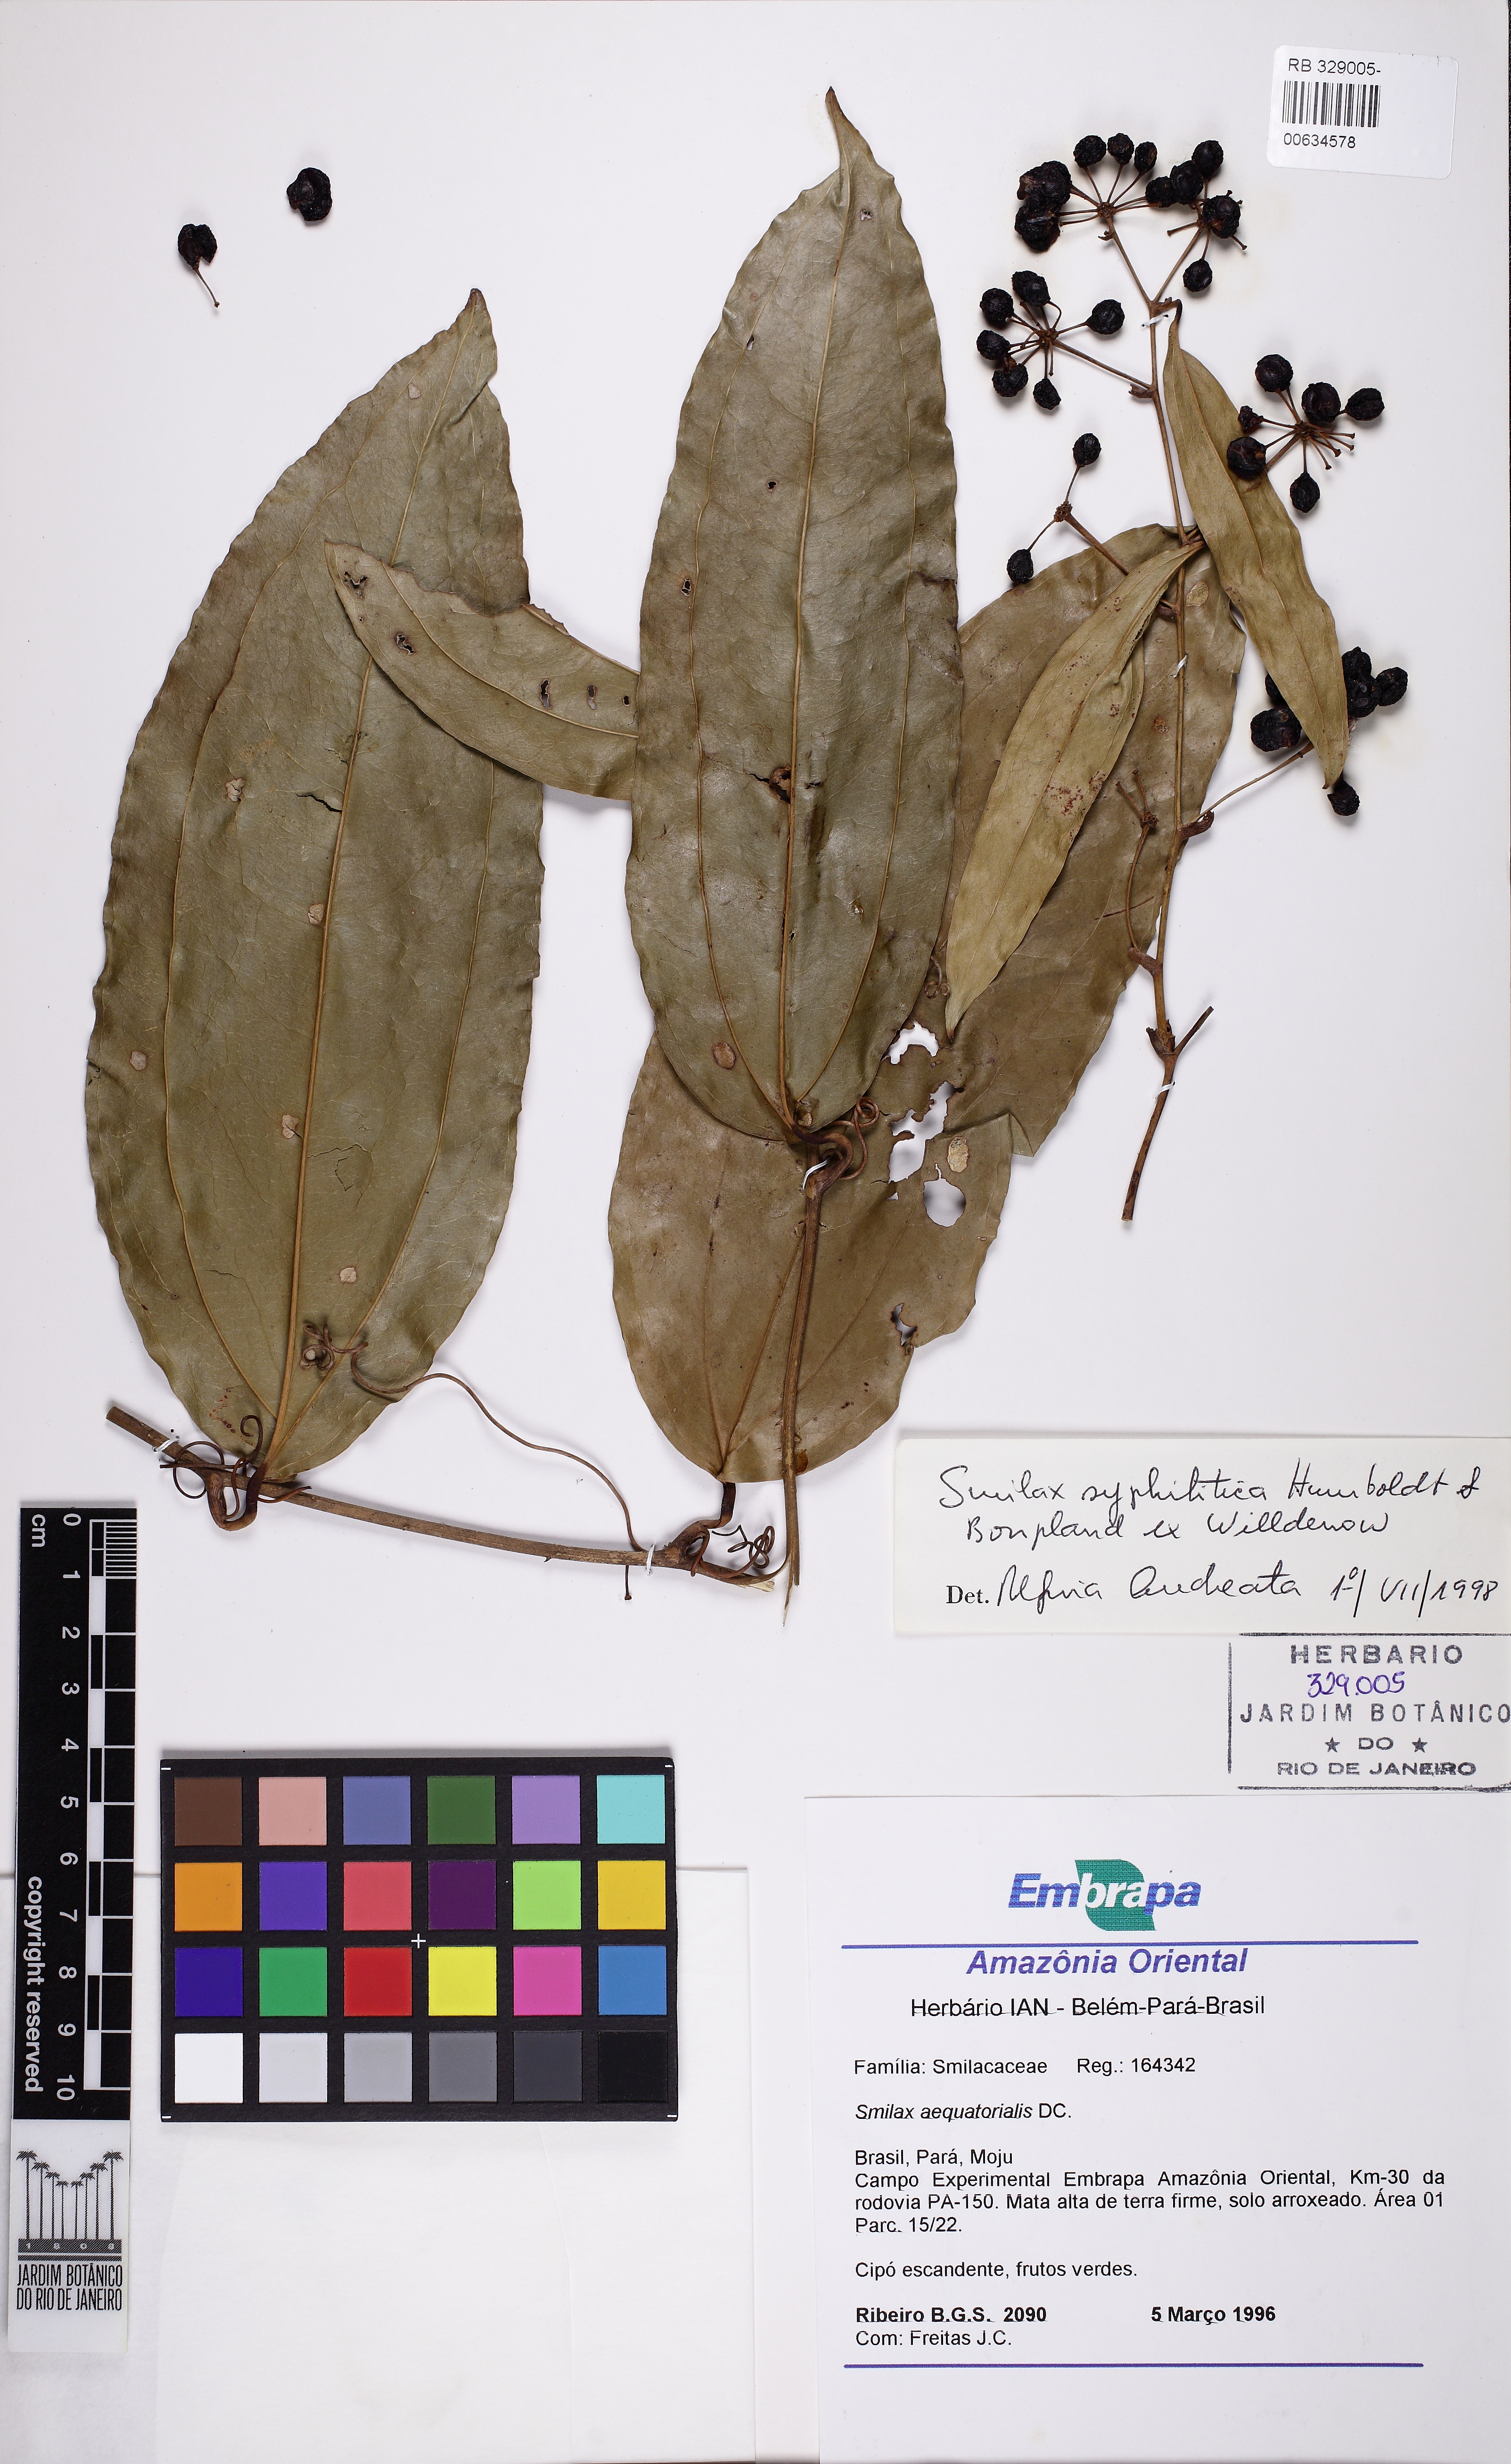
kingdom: Plantae
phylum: Tracheophyta
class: Liliopsida
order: Liliales
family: Smilacaceae
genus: Smilax
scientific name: Smilax siphilitica
